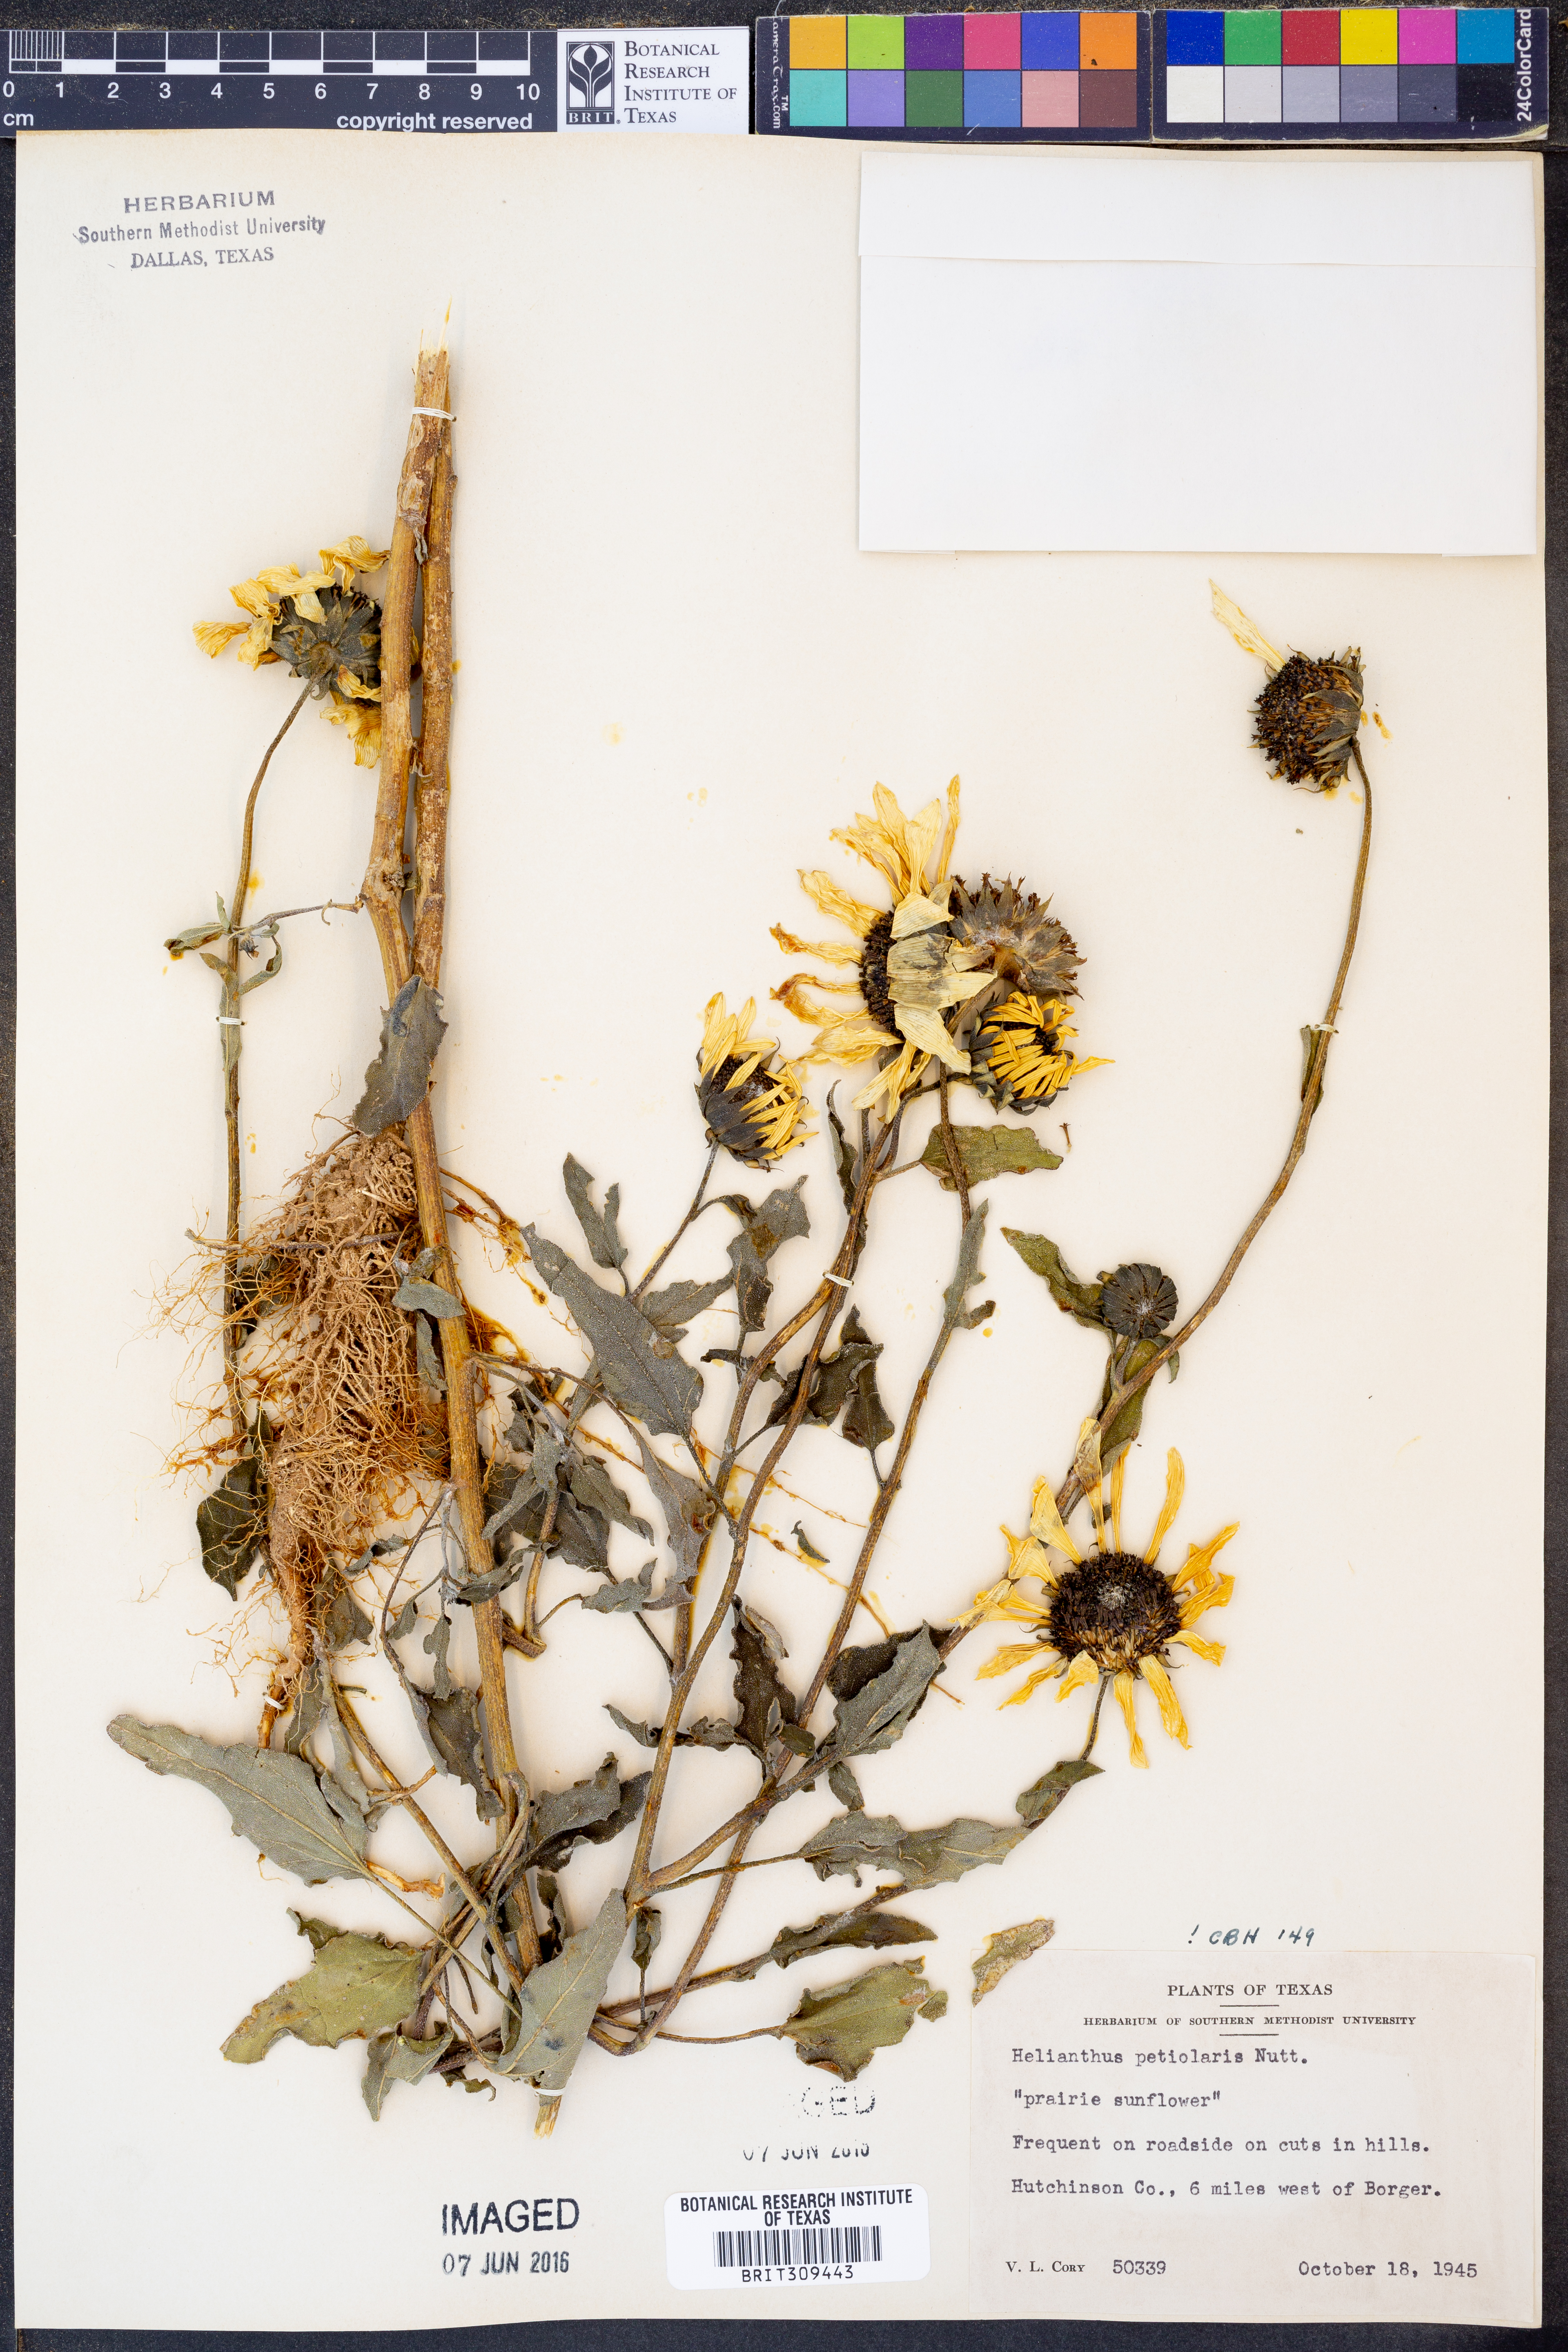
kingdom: Plantae
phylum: Tracheophyta
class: Magnoliopsida
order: Asterales
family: Asteraceae
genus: Helianthus
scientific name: Helianthus petiolaris
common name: Lesser sunflower
